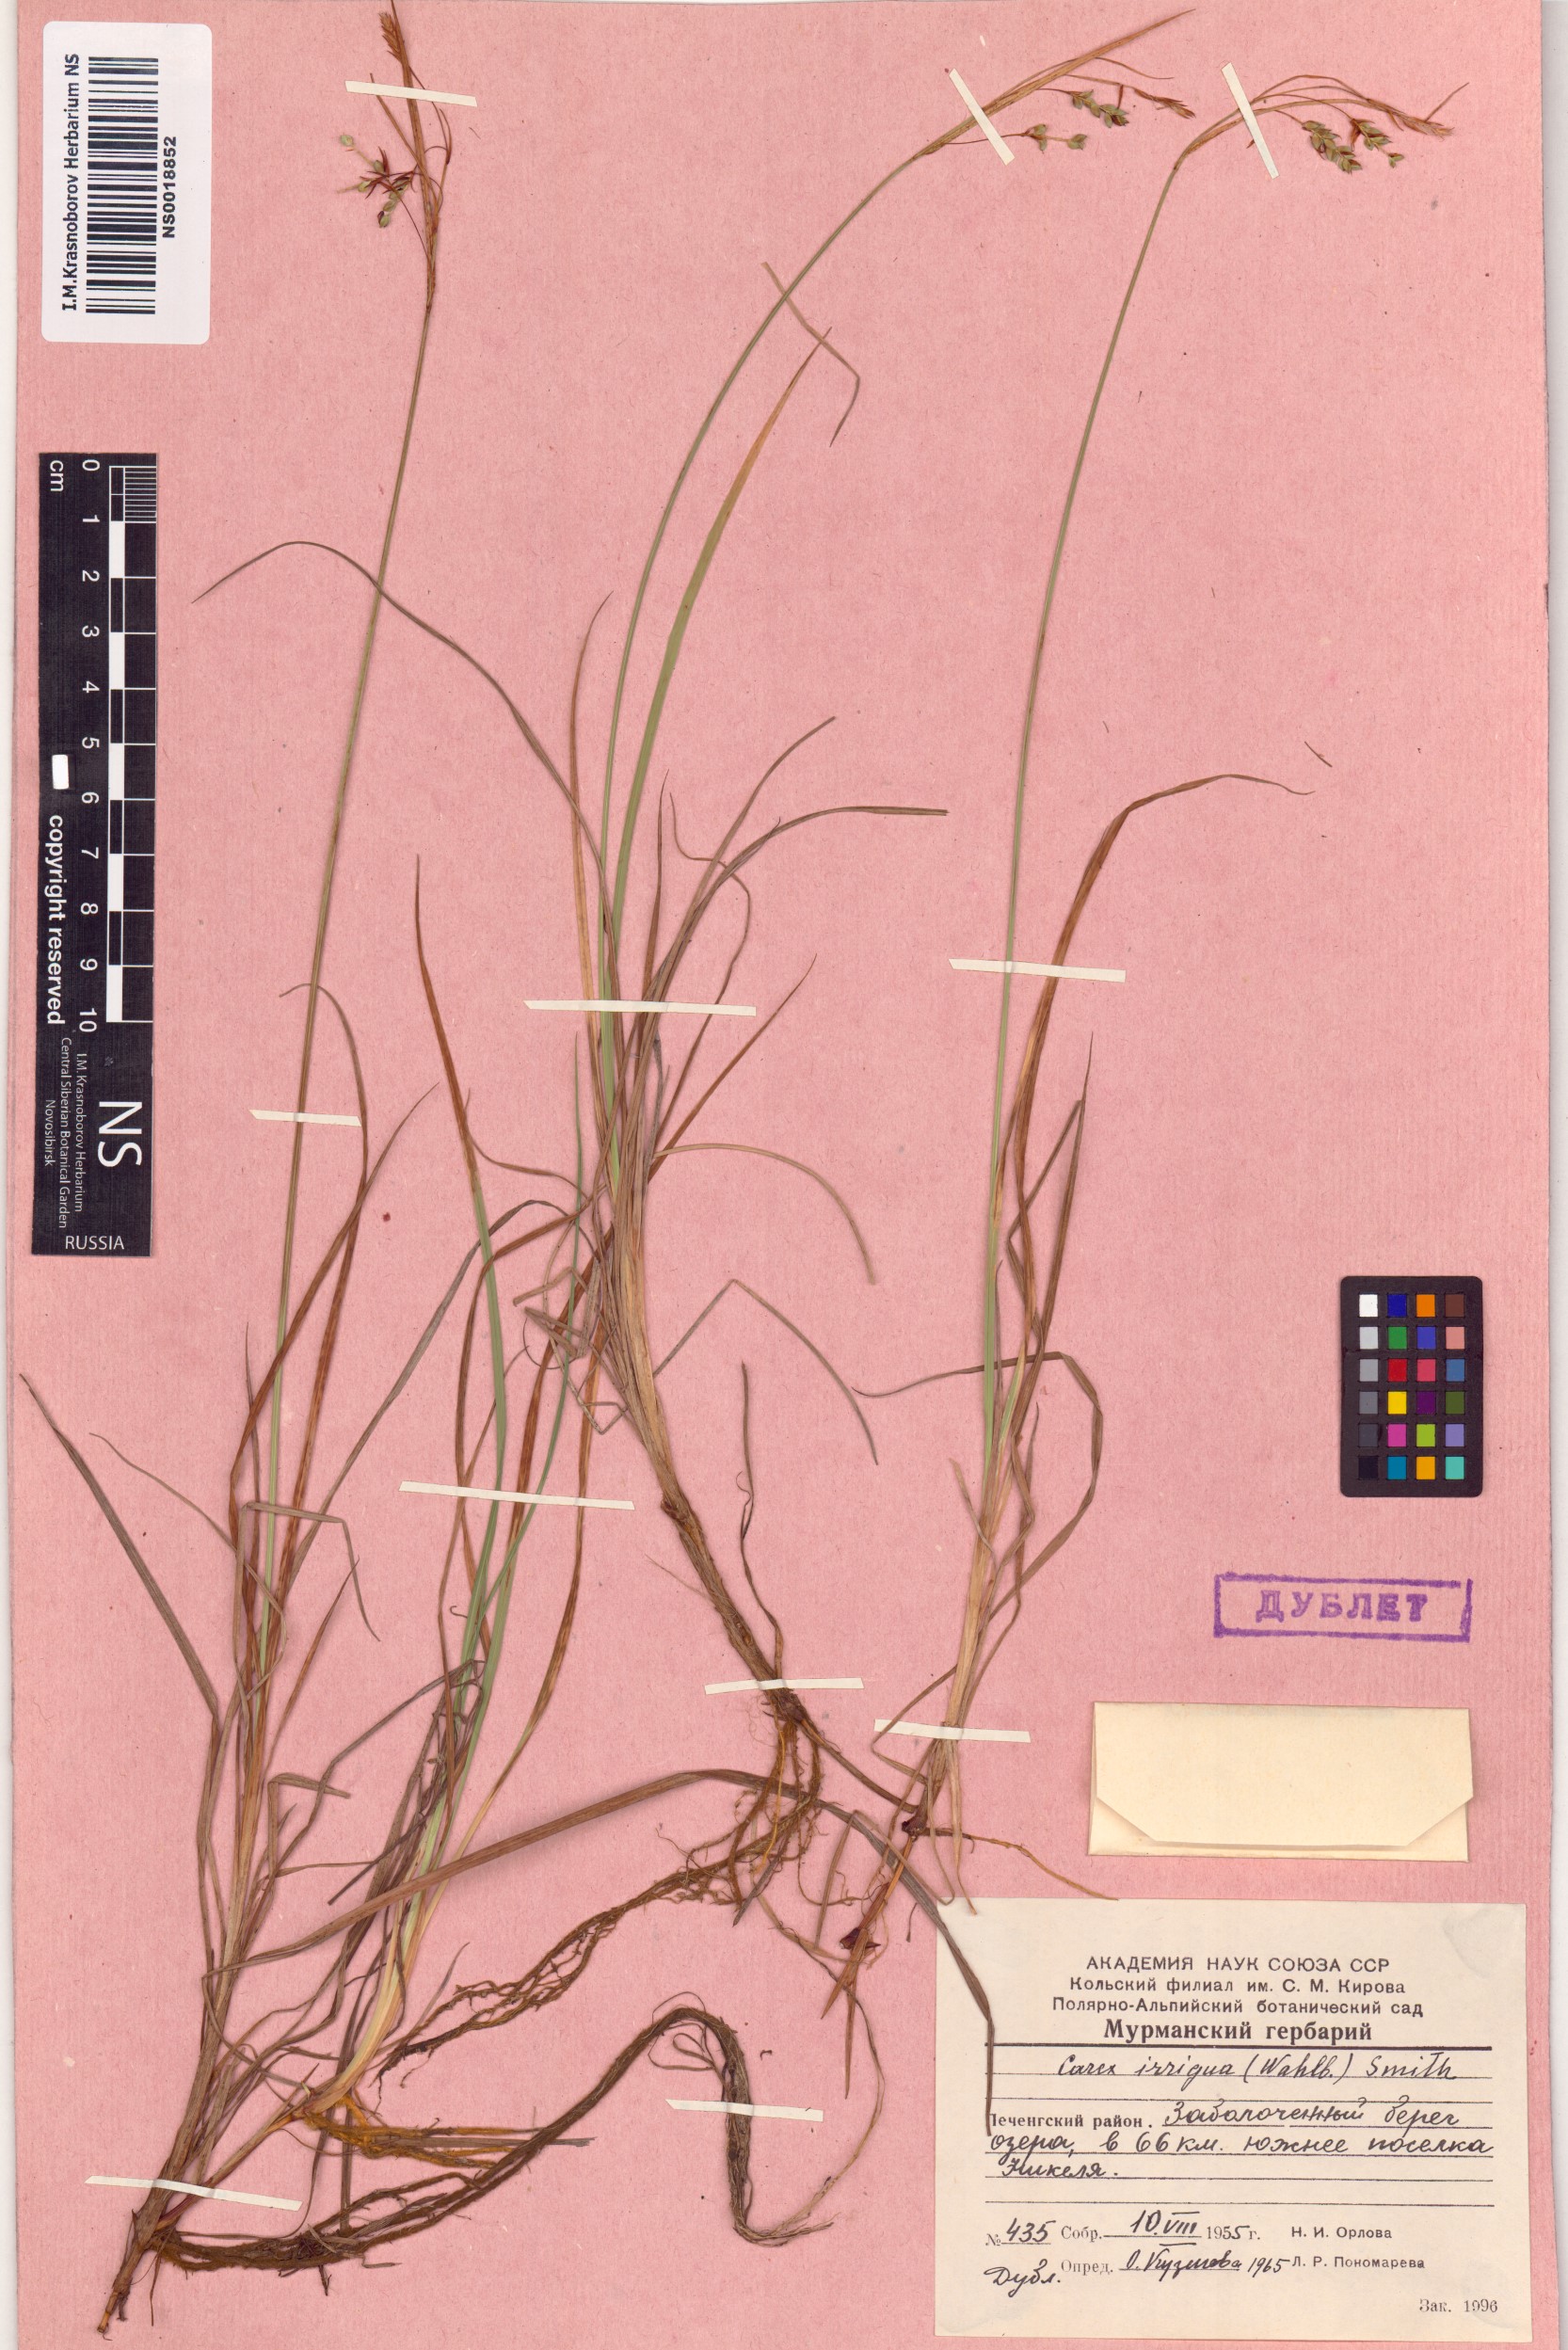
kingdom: Plantae
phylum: Tracheophyta
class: Liliopsida
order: Poales
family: Cyperaceae
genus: Carex
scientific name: Carex magellanica
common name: Bog sedge
